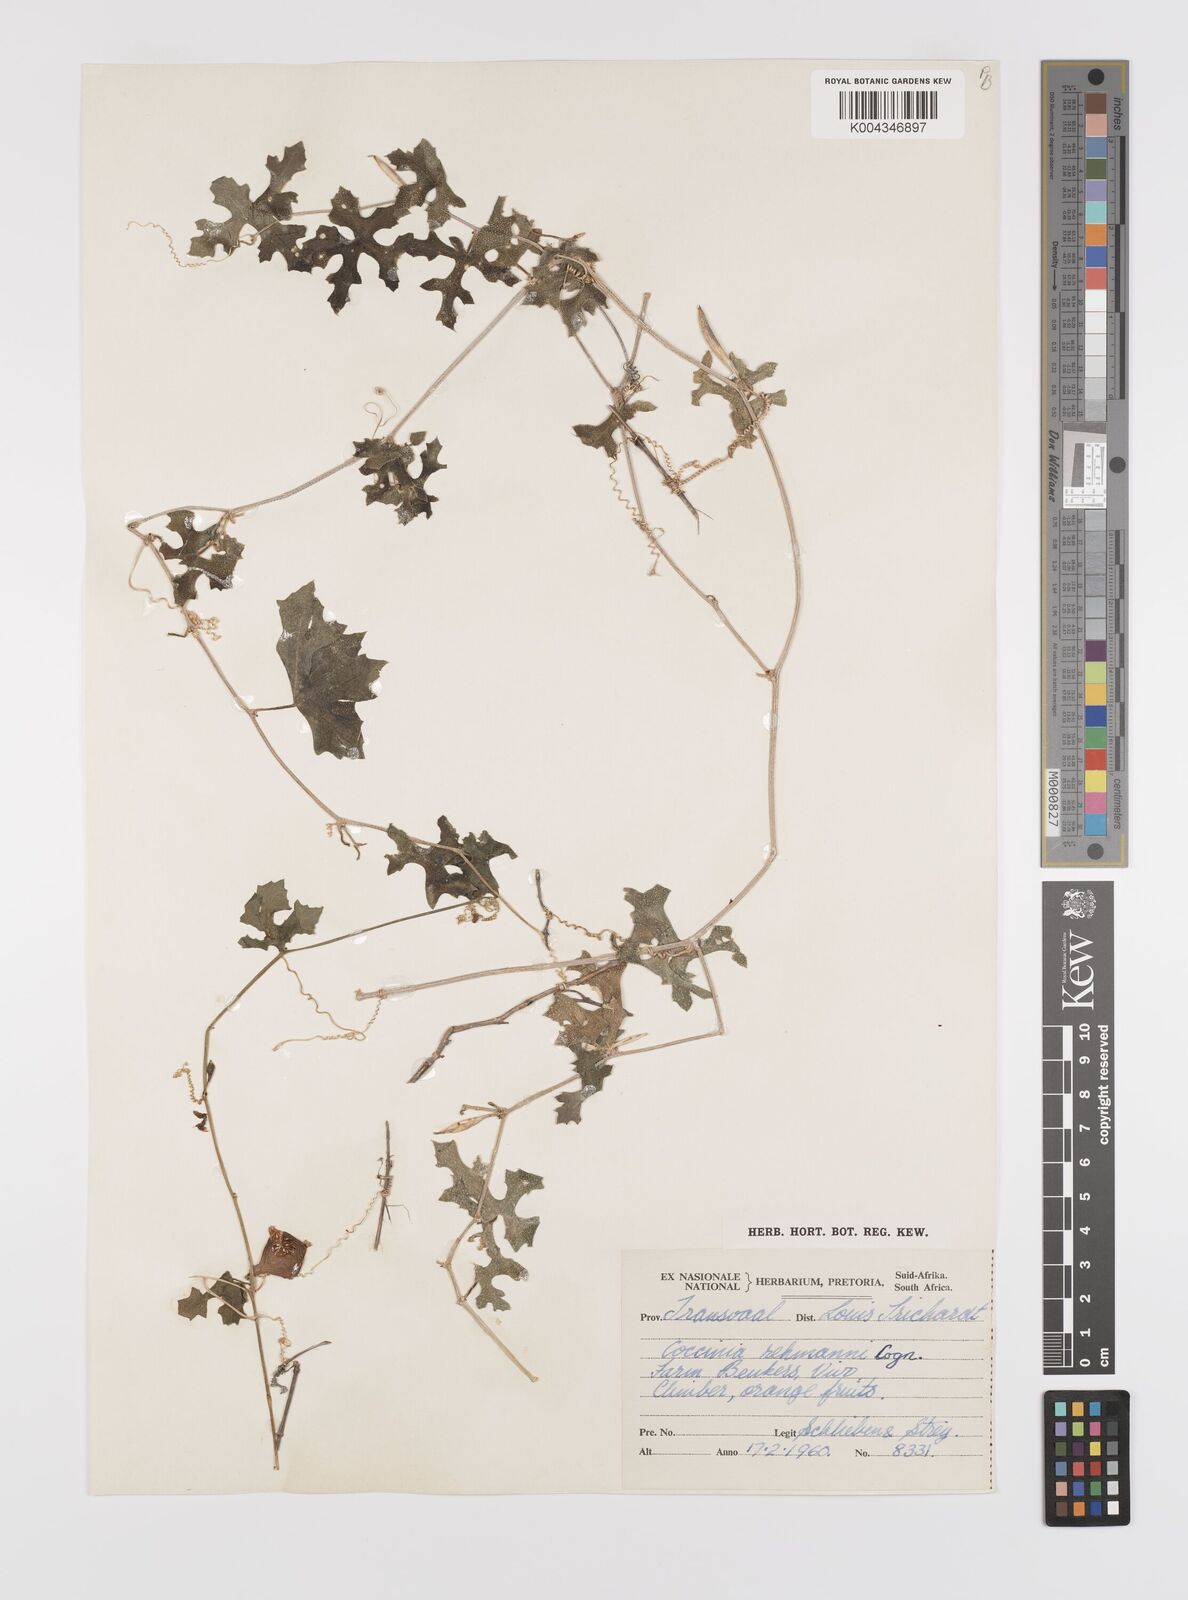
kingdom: Plantae
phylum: Tracheophyta
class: Magnoliopsida
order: Cucurbitales
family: Cucurbitaceae
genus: Coccinia
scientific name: Coccinia rehmannii
